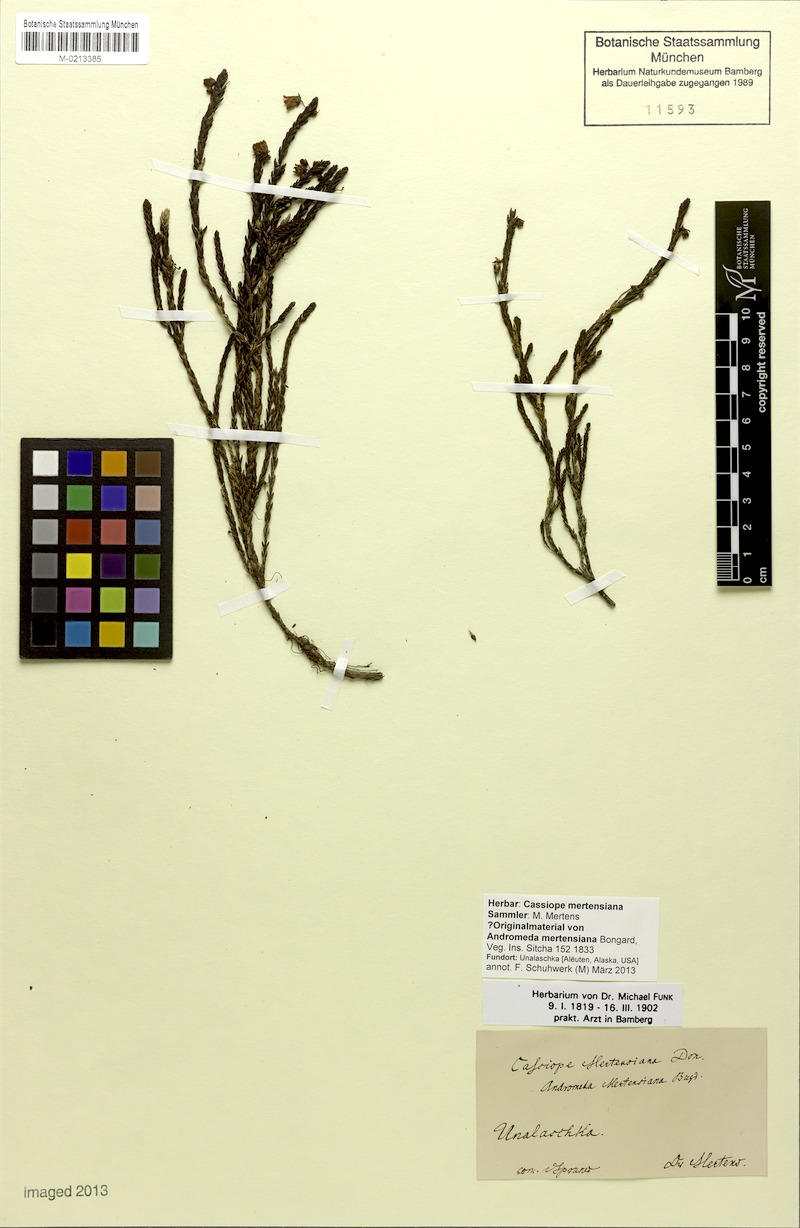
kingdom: Plantae
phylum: Tracheophyta
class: Magnoliopsida
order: Ericales
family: Ericaceae
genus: Cassiope
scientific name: Cassiope mertensiana
